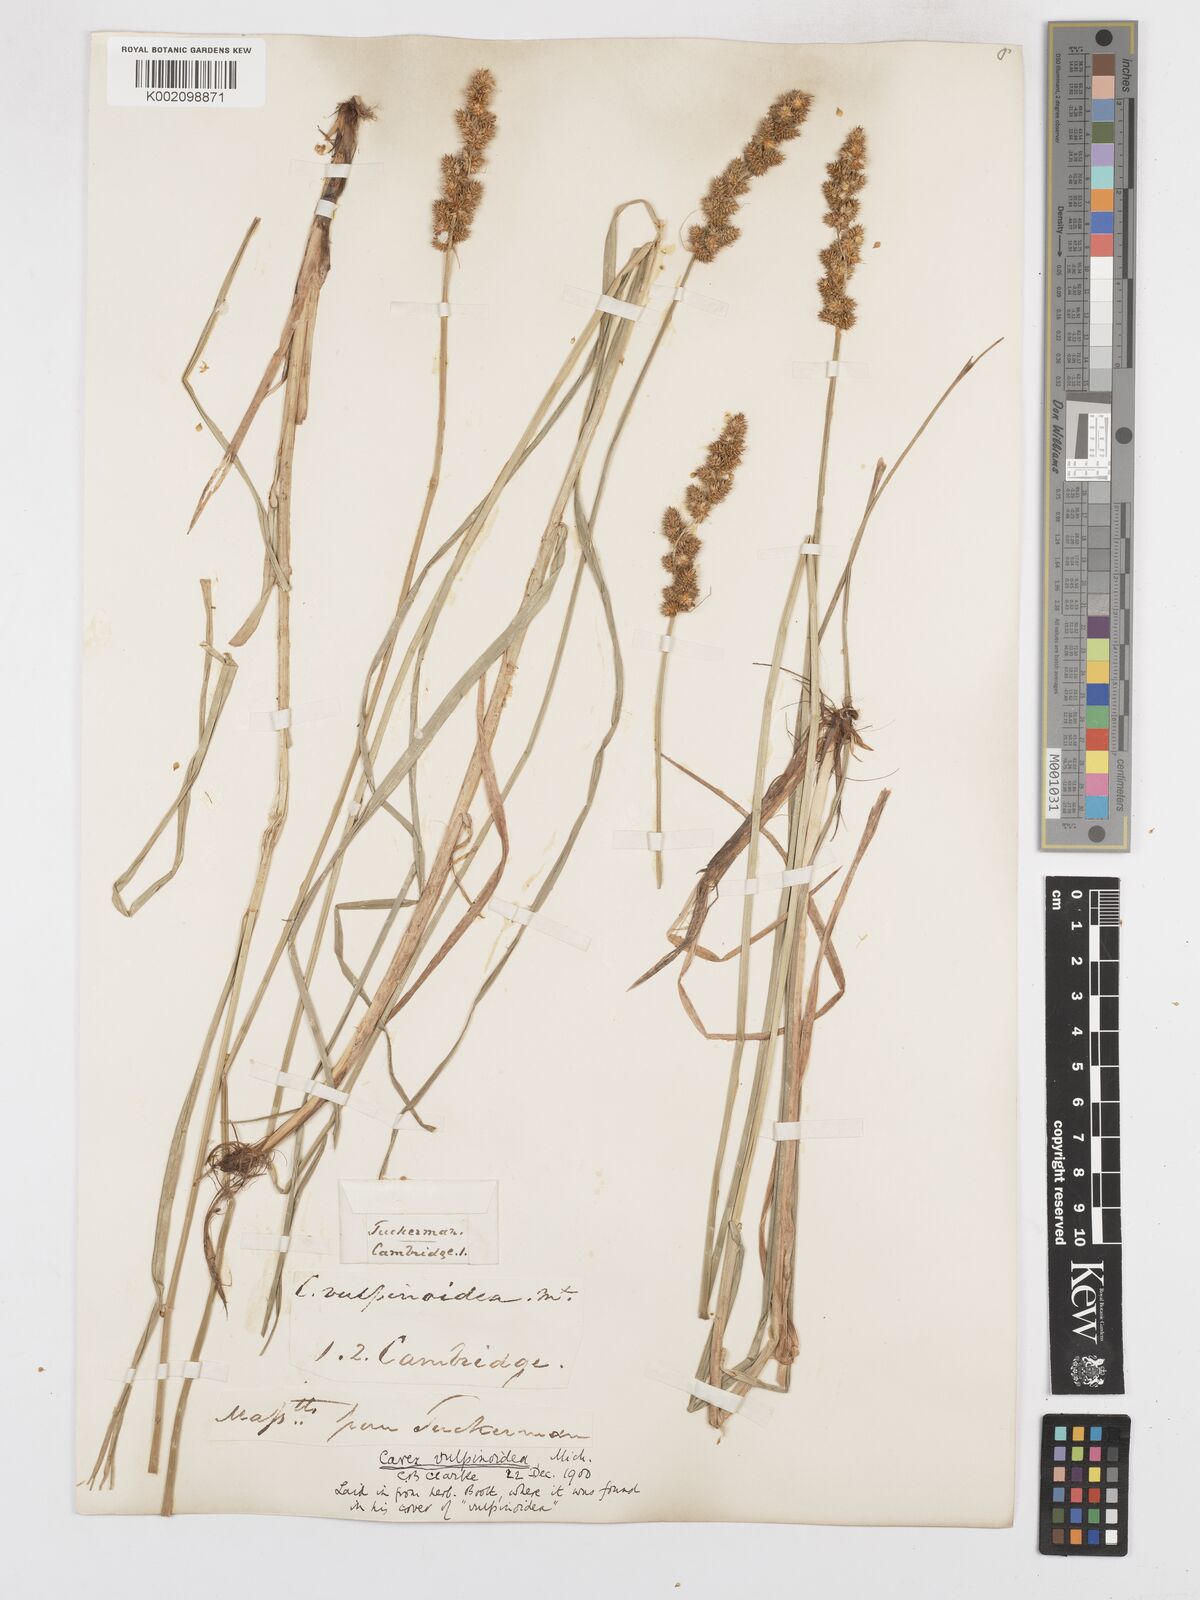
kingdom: Plantae
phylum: Tracheophyta
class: Liliopsida
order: Poales
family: Cyperaceae
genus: Carex
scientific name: Carex vulpinoidea
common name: American fox-sedge
